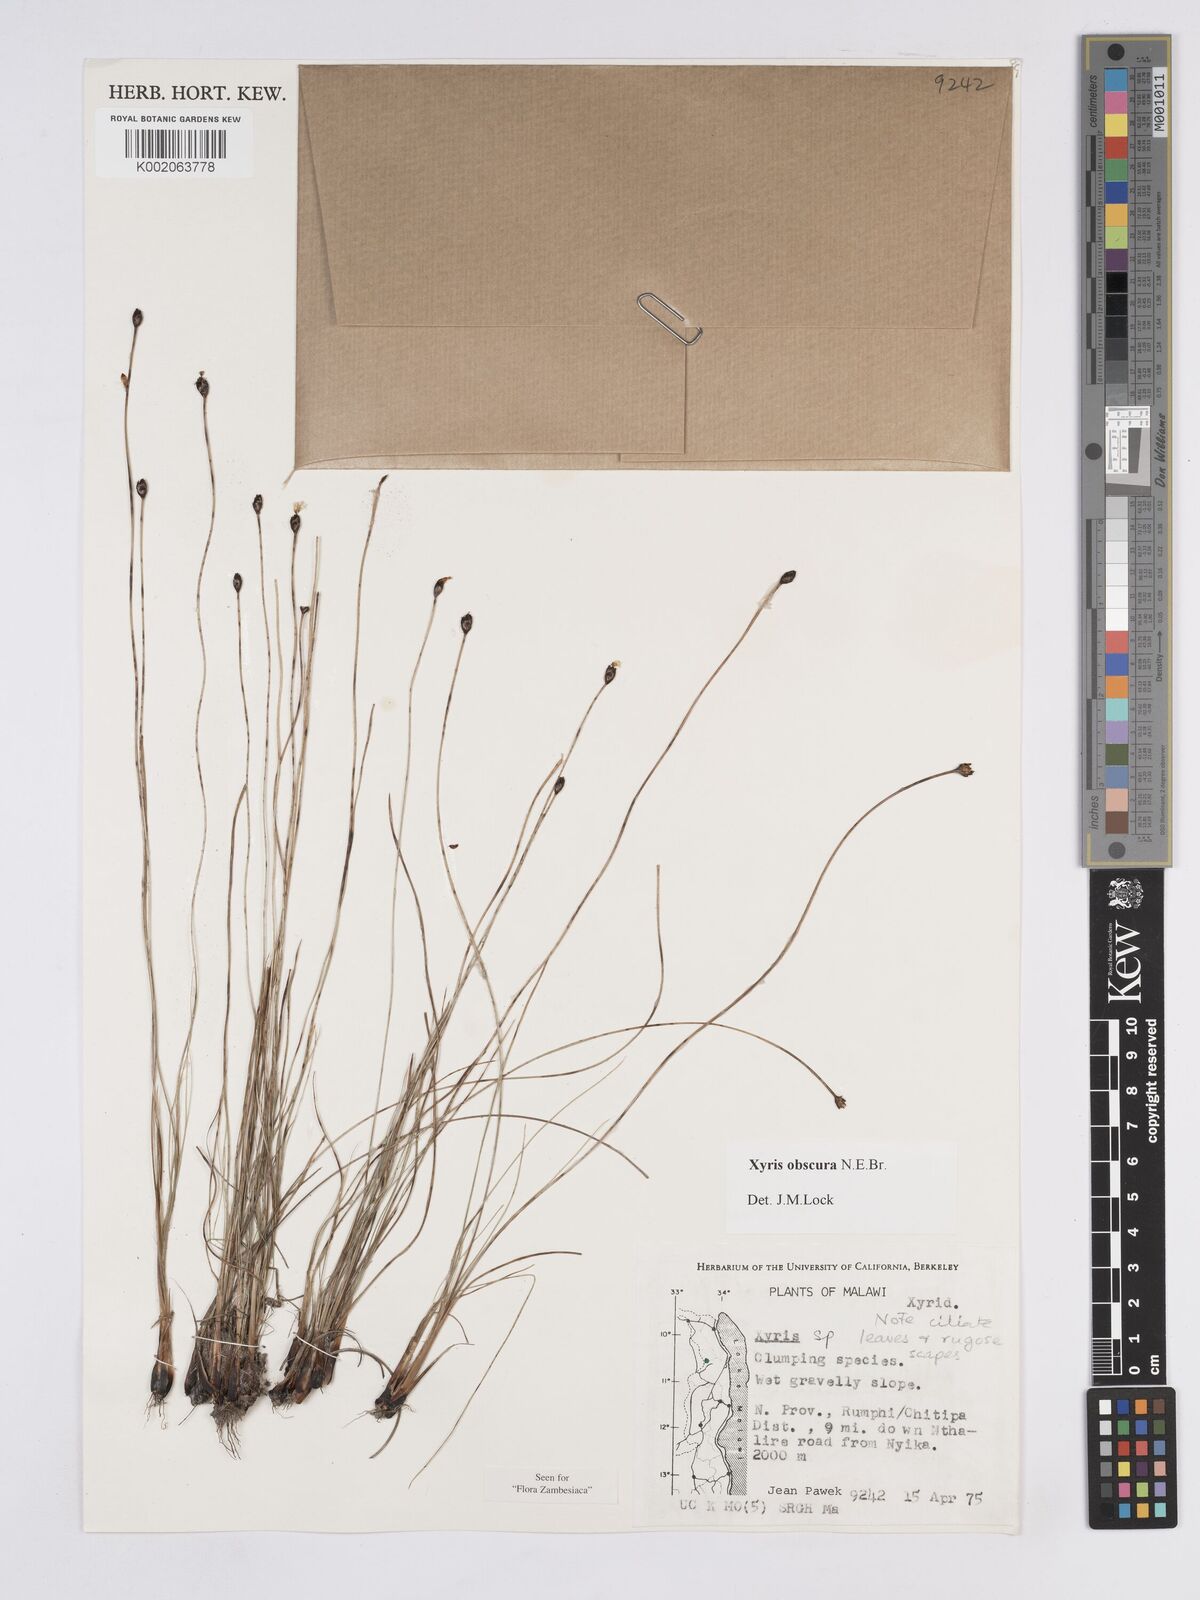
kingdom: Plantae
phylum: Tracheophyta
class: Liliopsida
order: Poales
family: Xyridaceae
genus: Xyris
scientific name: Xyris obscura
